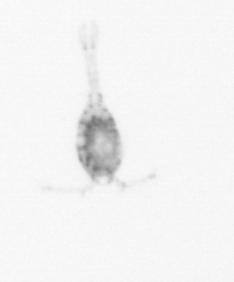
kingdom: Animalia
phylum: Arthropoda
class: Copepoda
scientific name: Copepoda
